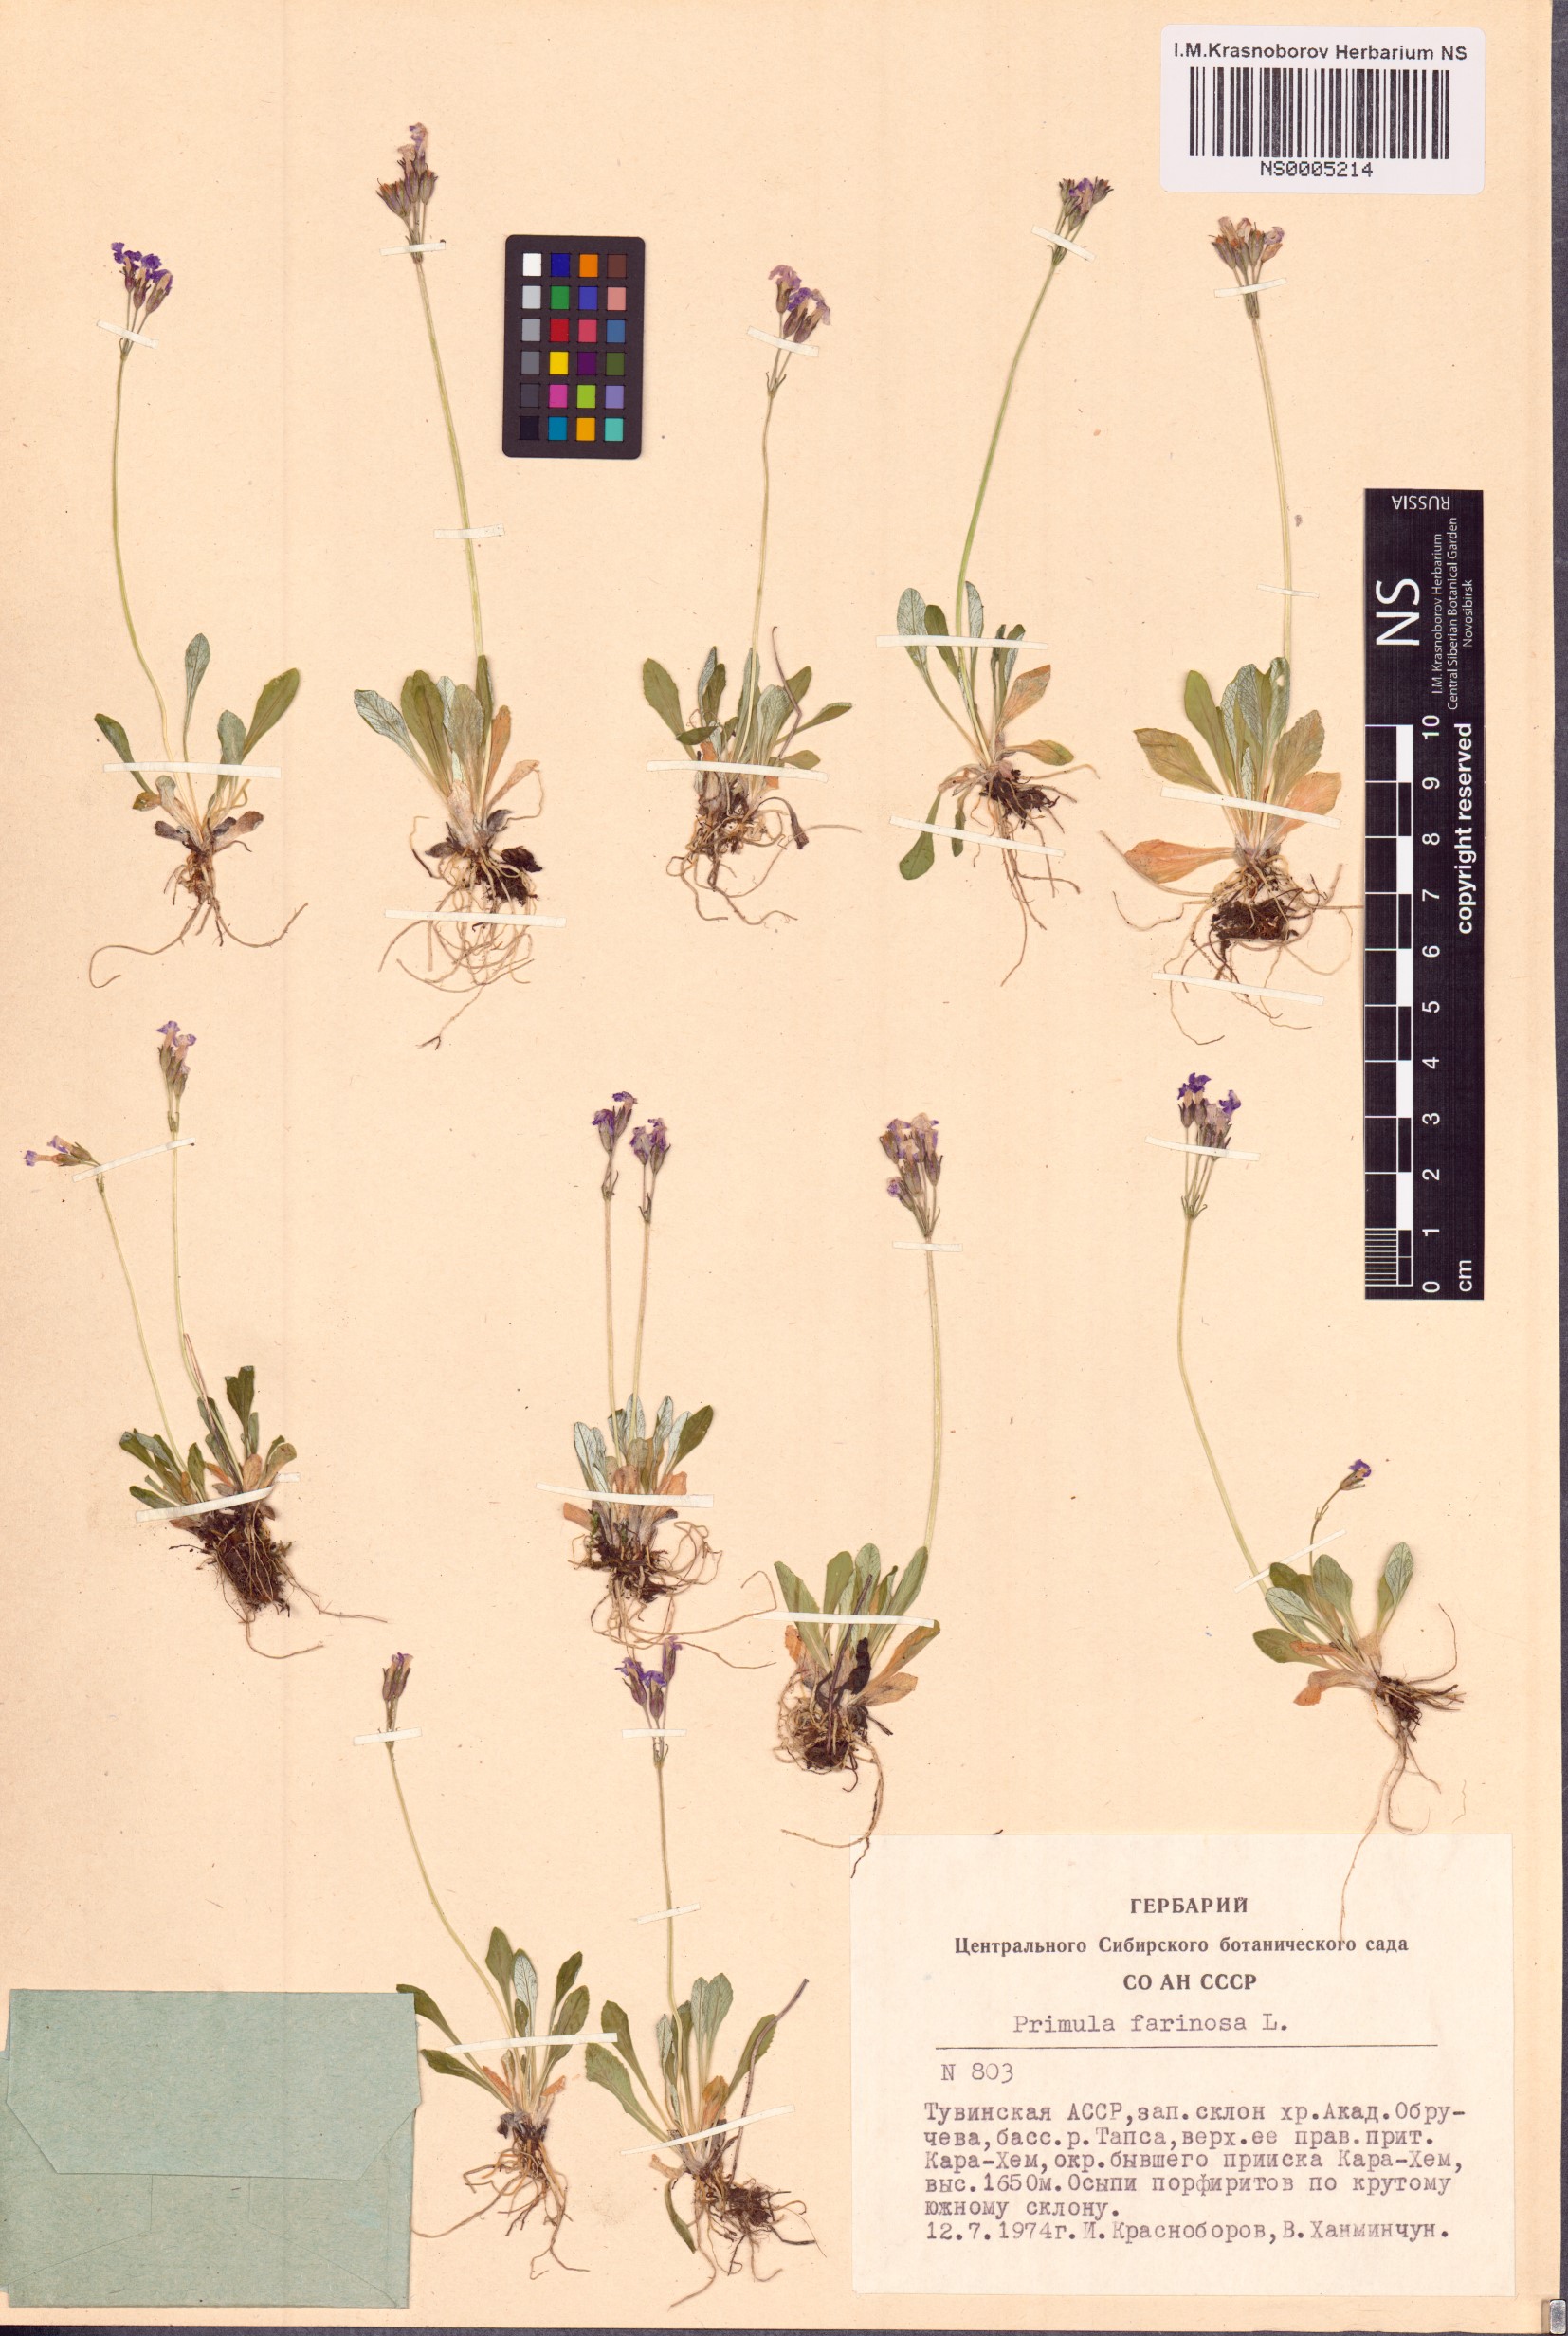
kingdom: Plantae
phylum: Tracheophyta
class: Magnoliopsida
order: Ericales
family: Primulaceae
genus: Primula
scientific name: Primula farinosa
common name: Bird's-eye primrose
